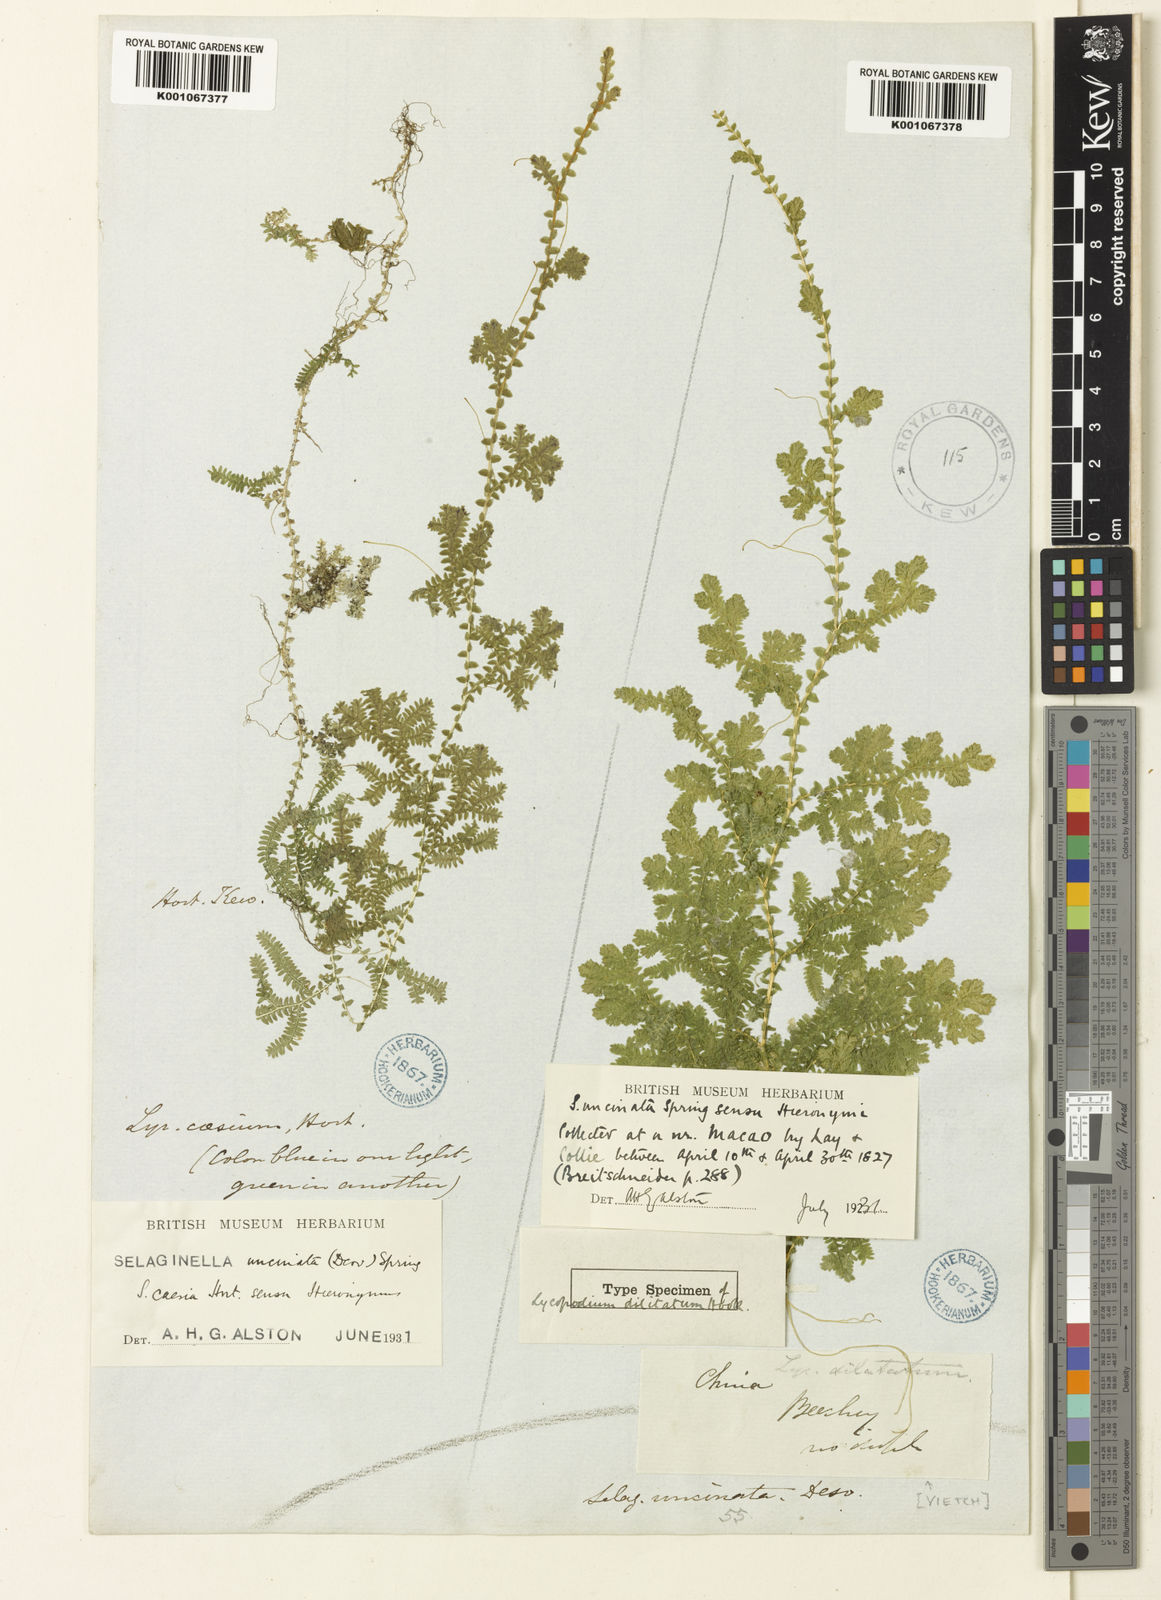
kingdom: Plantae
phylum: Tracheophyta
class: Lycopodiopsida
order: Selaginellales
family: Selaginellaceae
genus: Selaginella
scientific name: Selaginella uncinata
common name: Blue spikemoss
